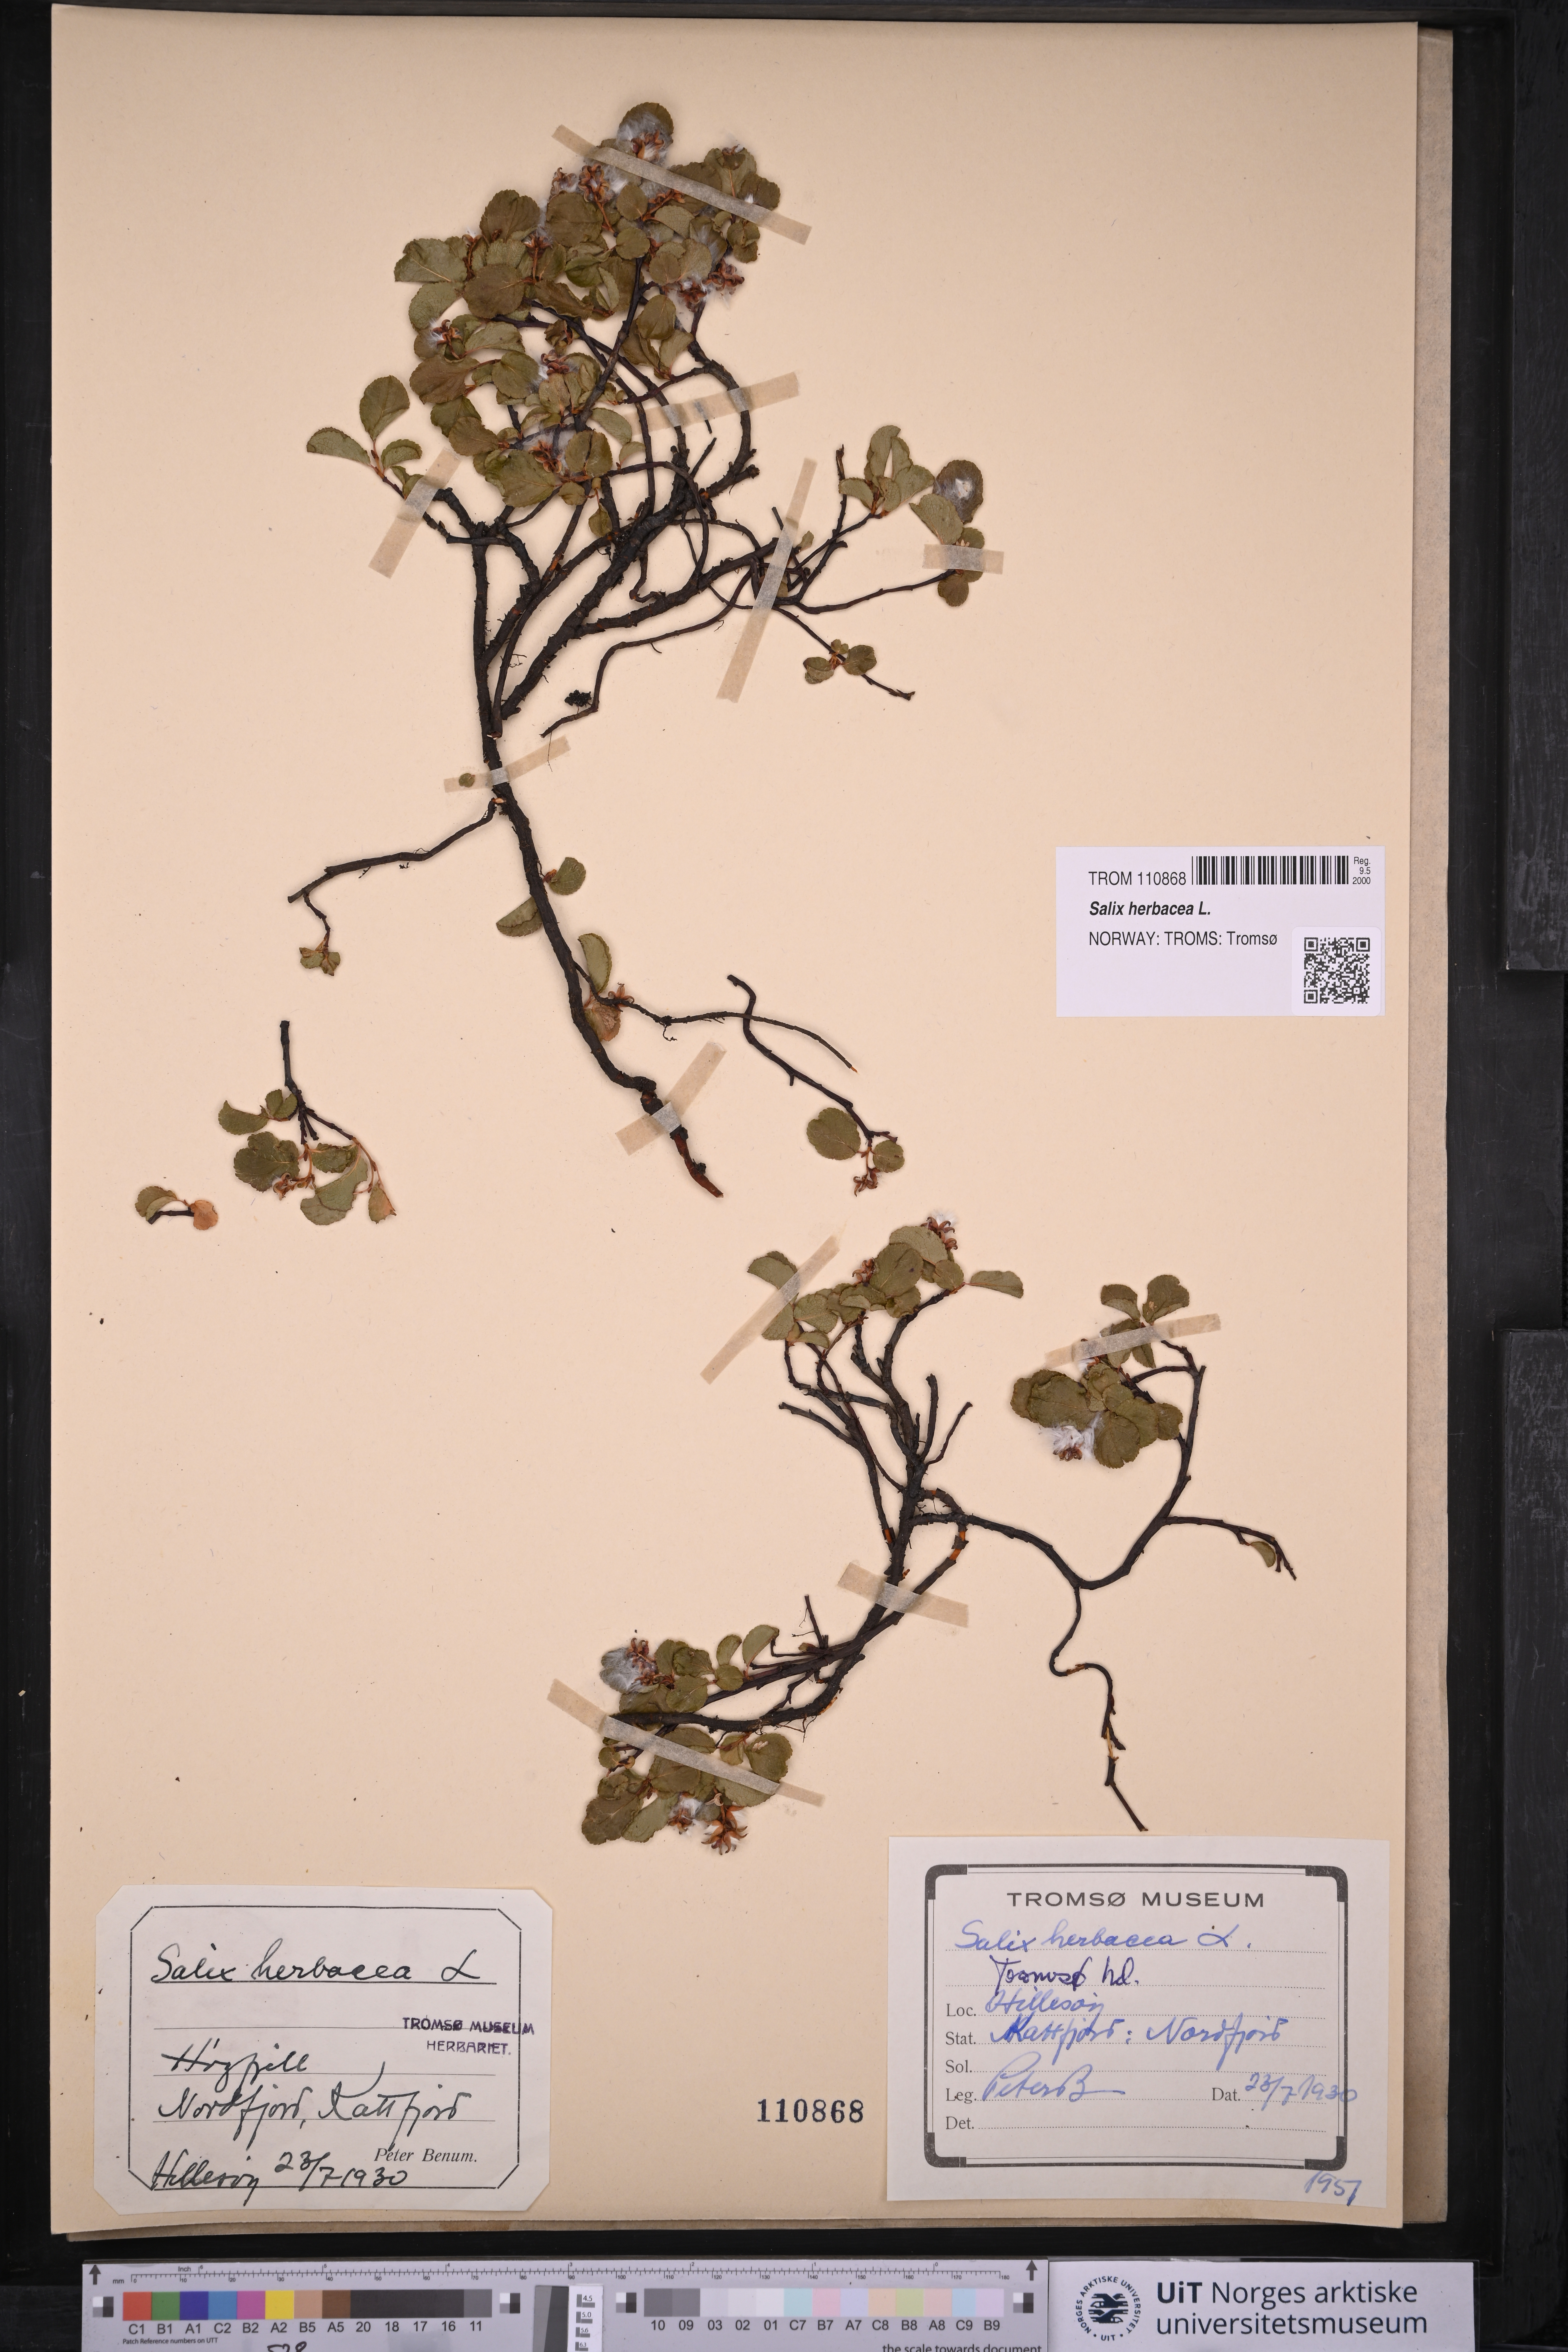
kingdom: Plantae
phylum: Tracheophyta
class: Magnoliopsida
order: Malpighiales
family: Salicaceae
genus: Salix
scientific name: Salix herbacea
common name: Dwarf willow
